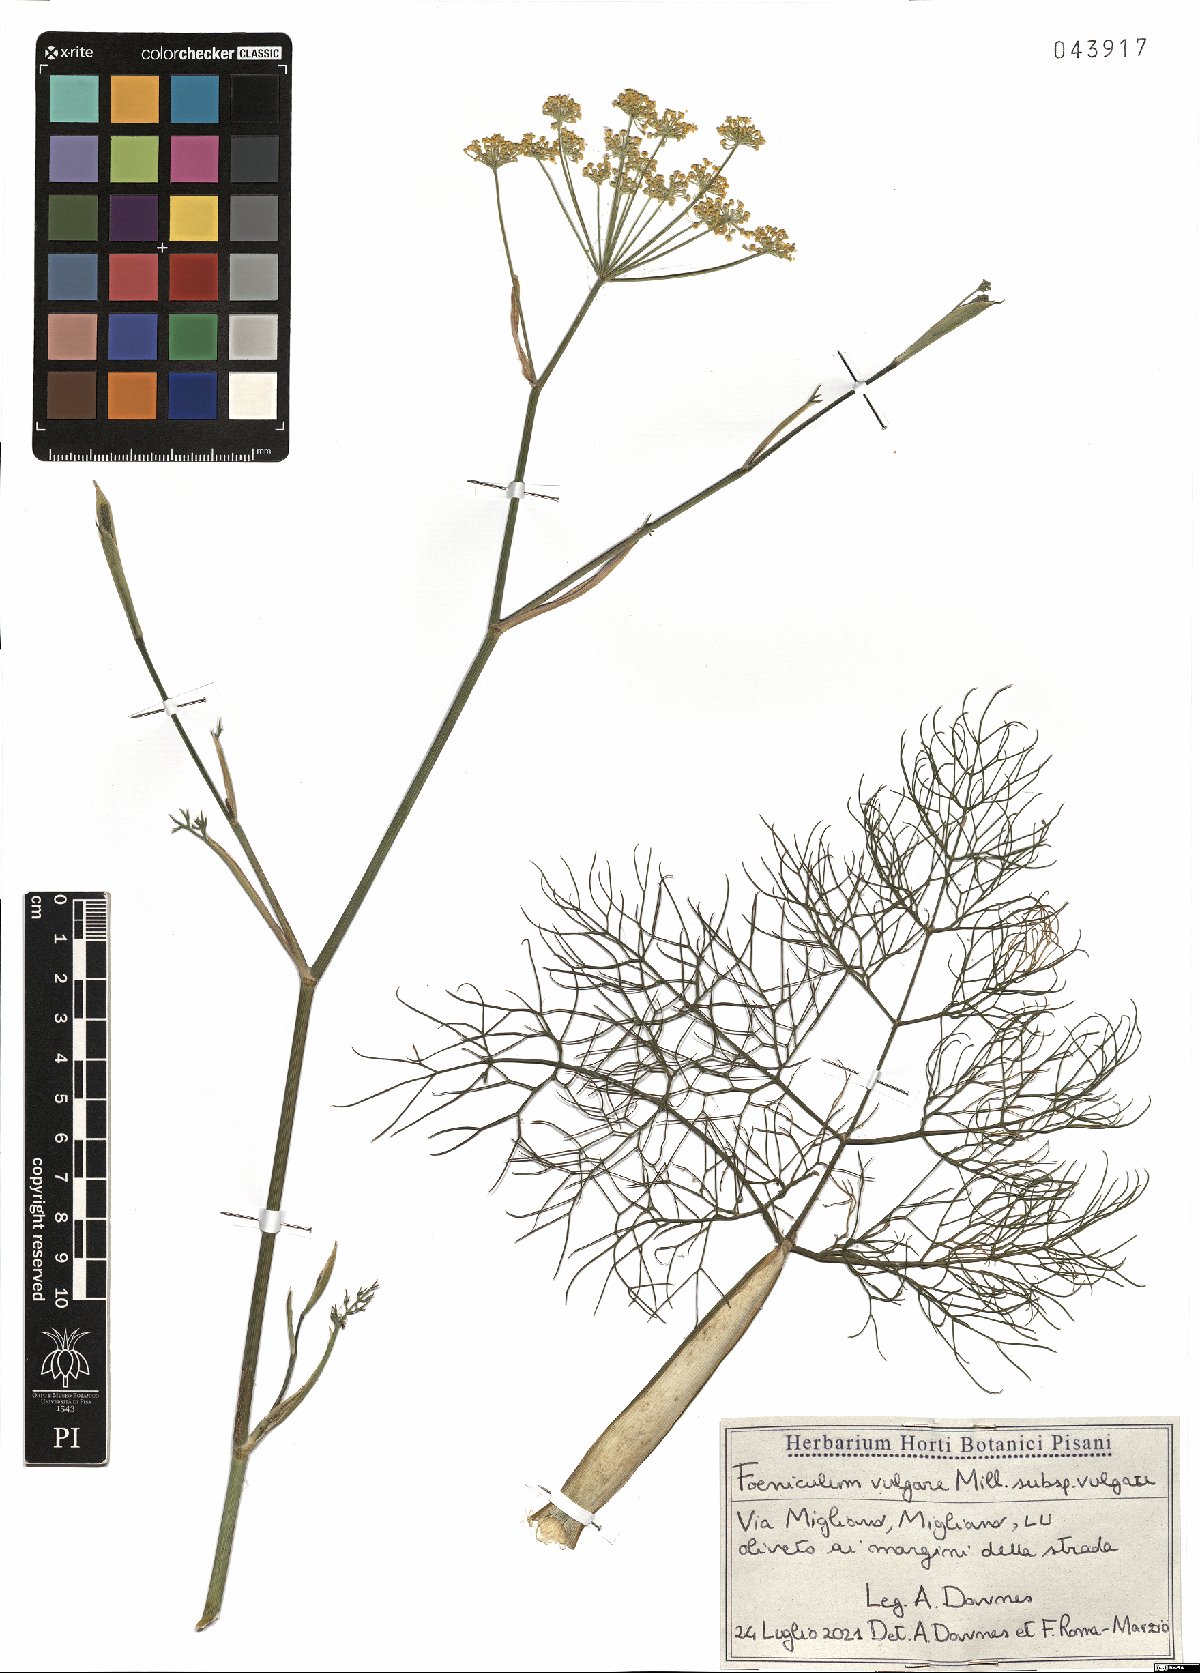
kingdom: Plantae
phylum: Tracheophyta
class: Magnoliopsida
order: Apiales
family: Apiaceae
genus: Foeniculum
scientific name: Foeniculum vulgare
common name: Fennel
